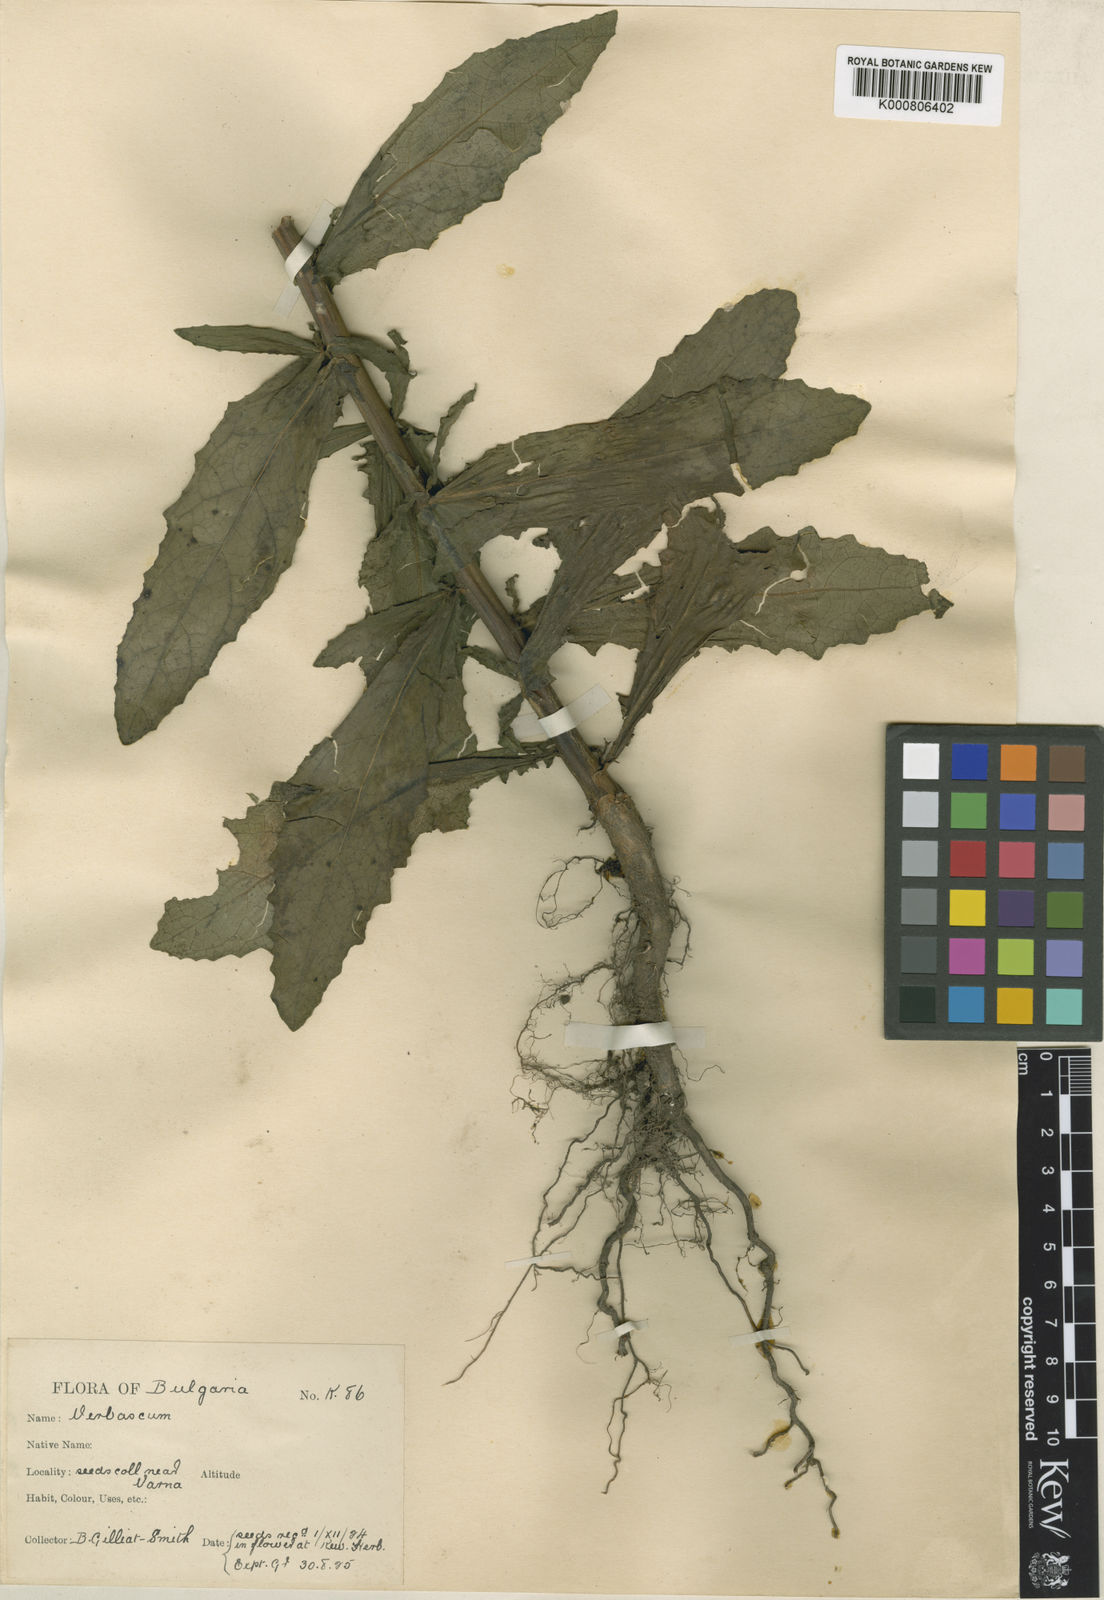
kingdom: Plantae
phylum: Tracheophyta
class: Magnoliopsida
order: Lamiales
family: Scrophulariaceae
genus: Verbascum
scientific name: Verbascum blattaria
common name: Moth mullein
